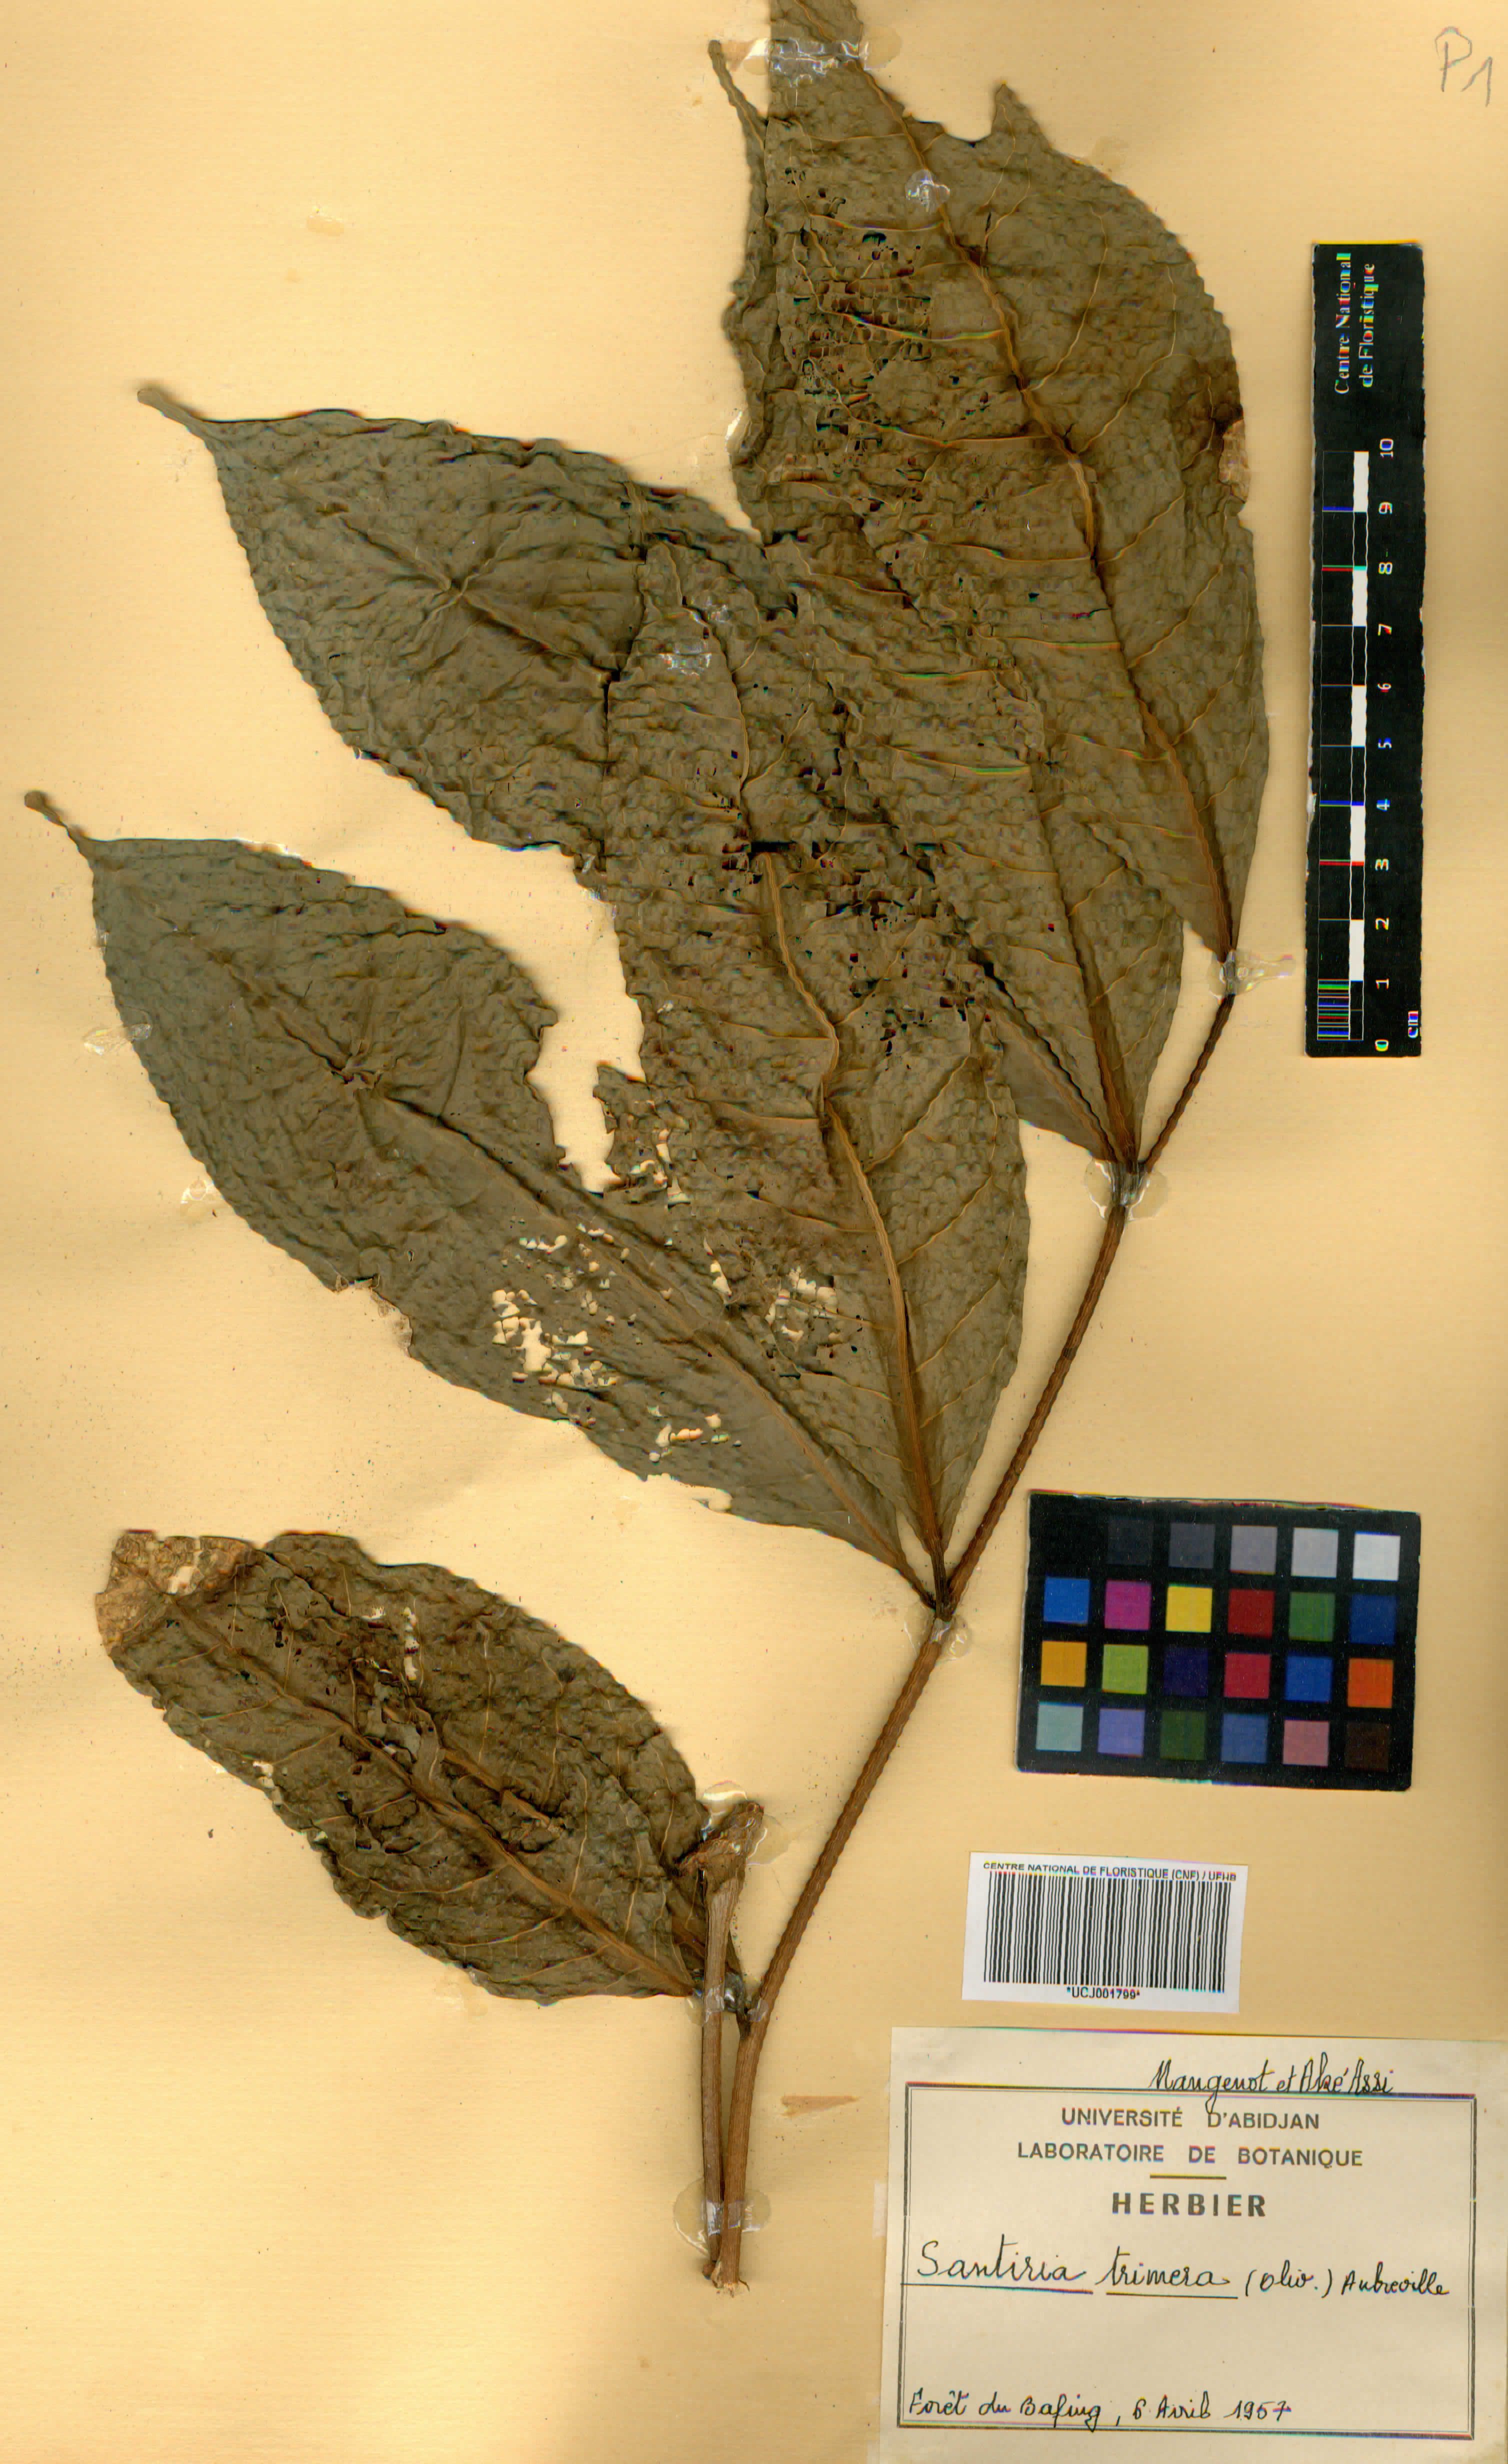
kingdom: Plantae
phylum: Tracheophyta
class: Magnoliopsida
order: Sapindales
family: Burseraceae
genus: Pachylobus
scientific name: Pachylobus trimerus
